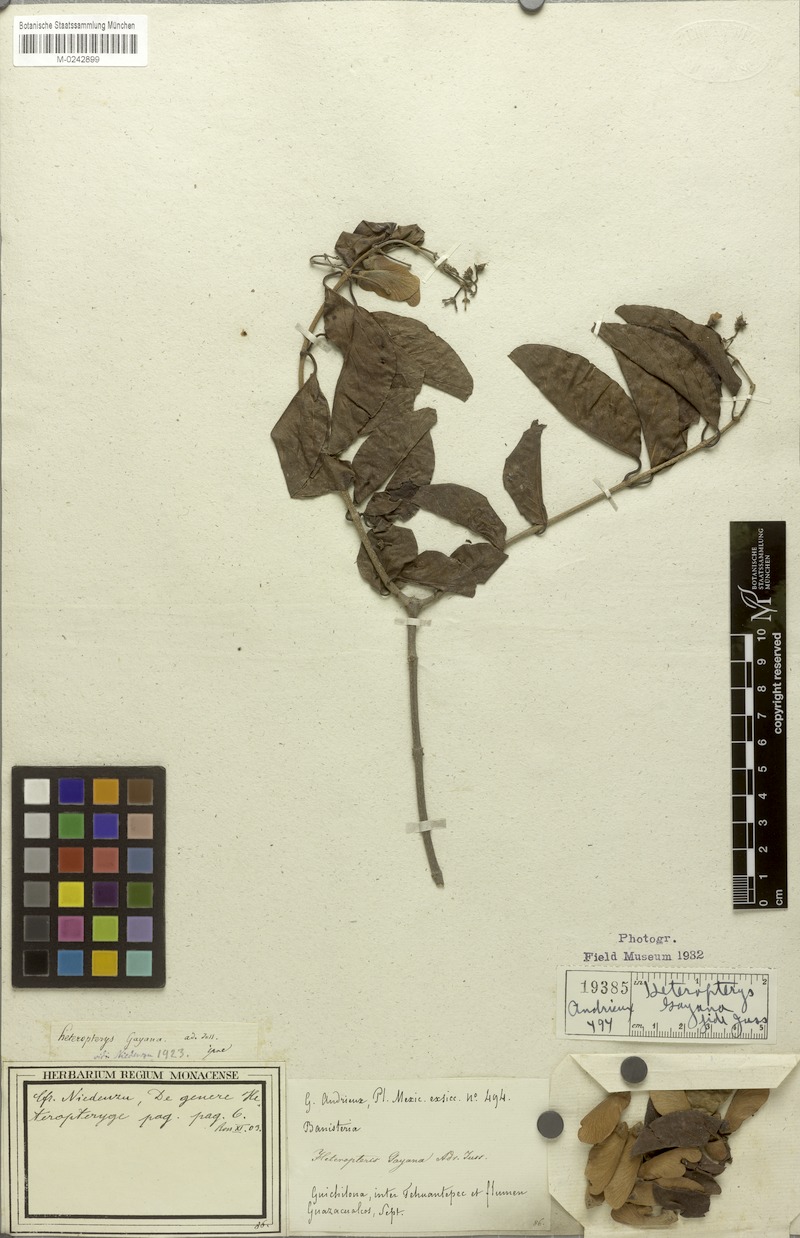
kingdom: Plantae
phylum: Tracheophyta
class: Magnoliopsida
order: Malpighiales
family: Malpighiaceae
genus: Heteropterys
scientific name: Heteropterys cotinifolia
